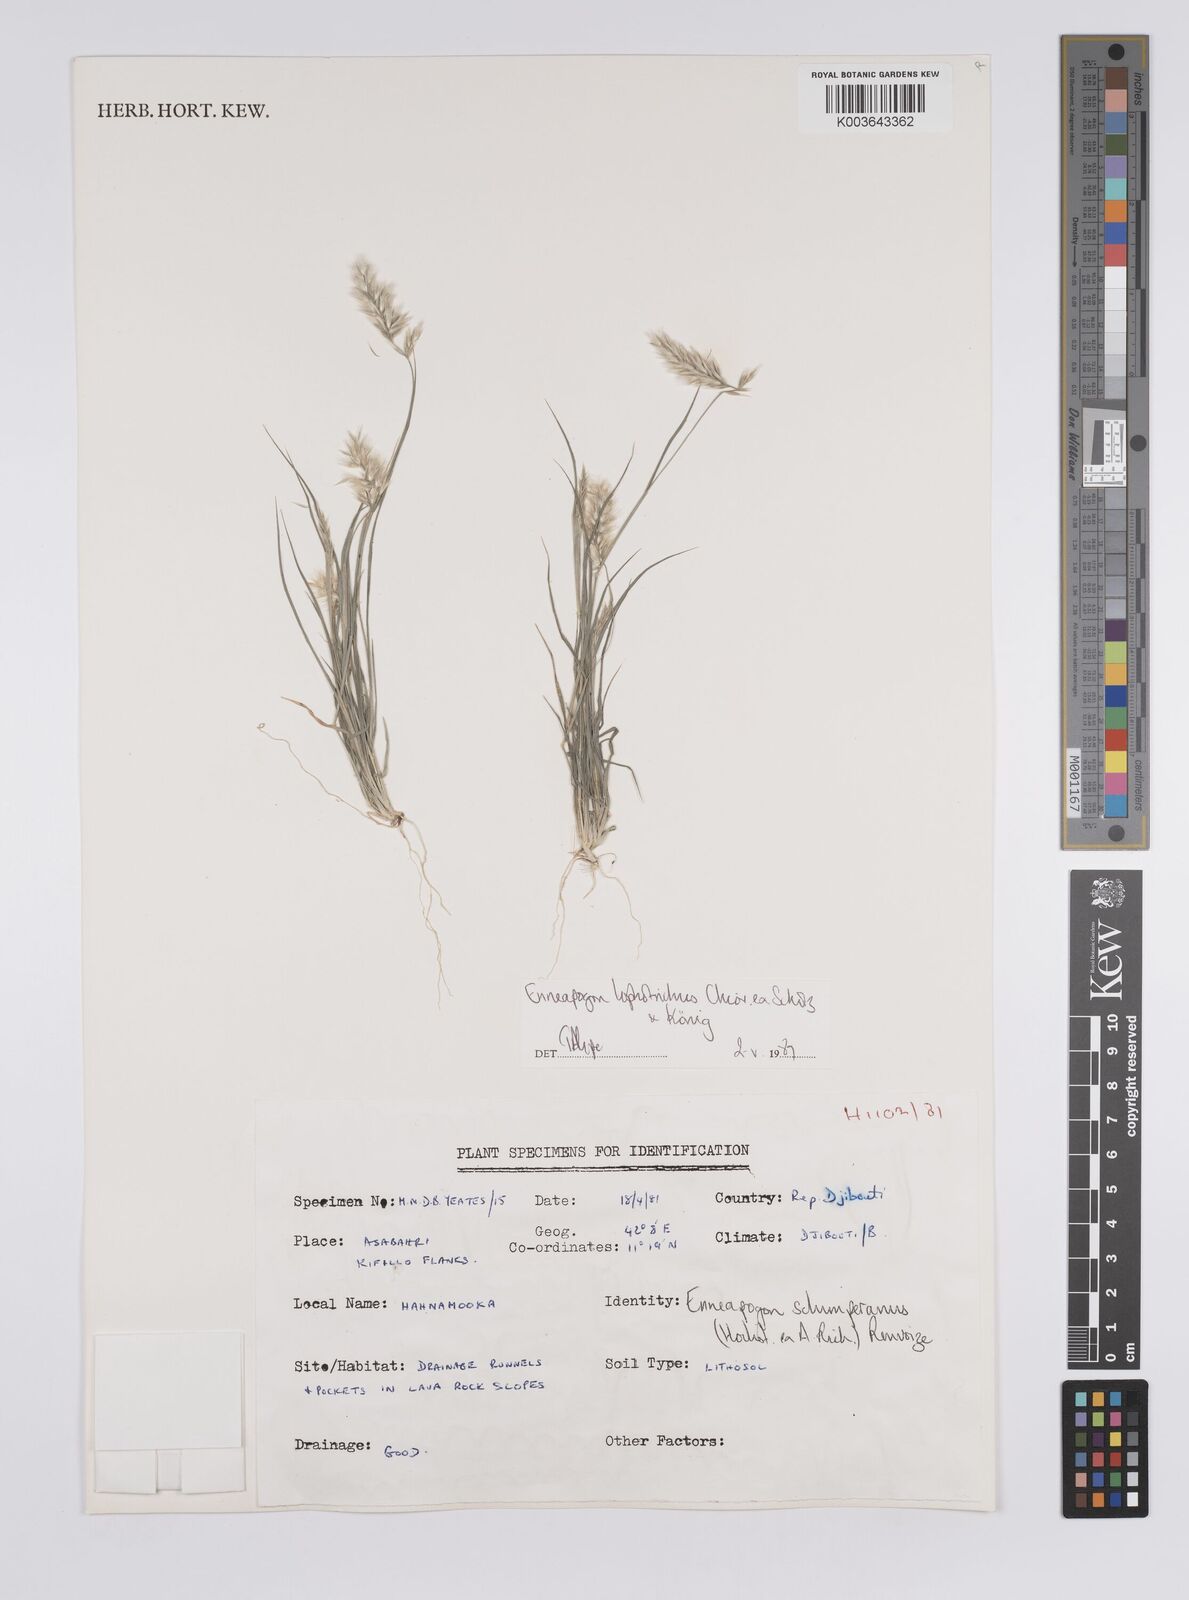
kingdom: Plantae
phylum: Tracheophyta
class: Liliopsida
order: Poales
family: Poaceae
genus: Enneapogon
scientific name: Enneapogon lophotrichus
